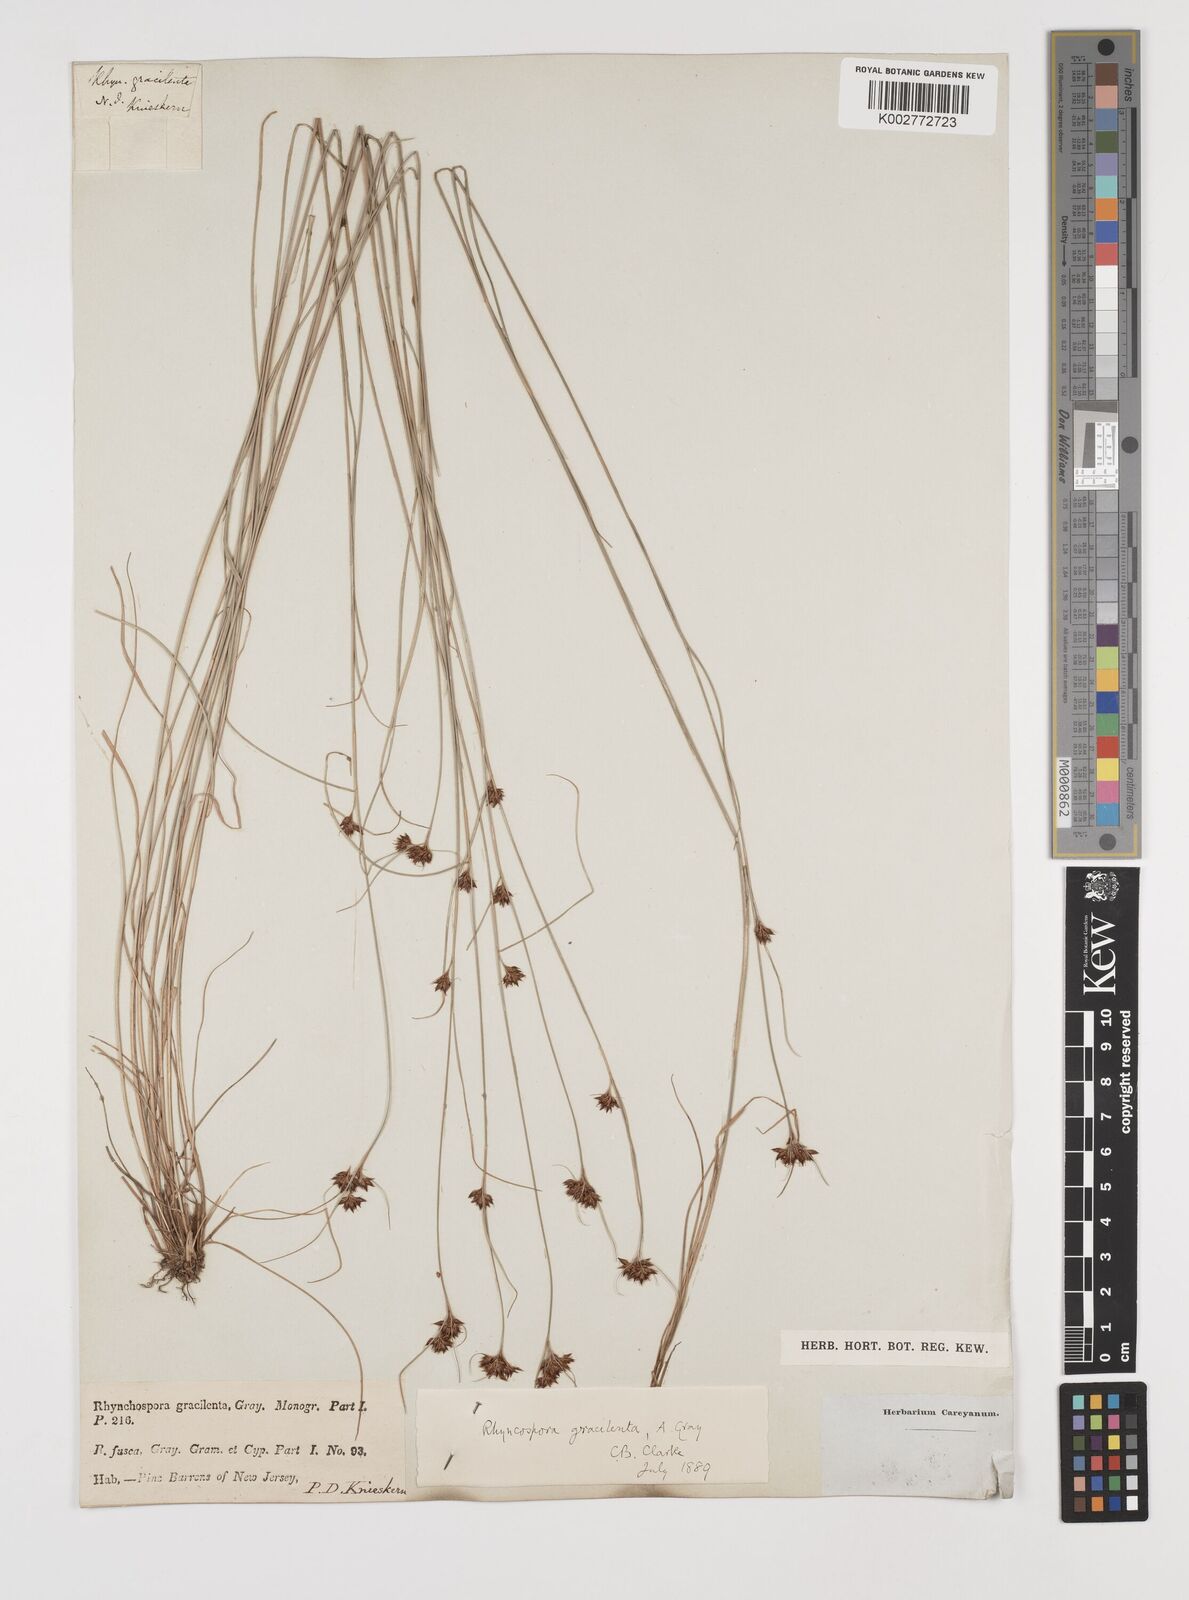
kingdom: Plantae
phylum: Tracheophyta
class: Liliopsida
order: Poales
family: Cyperaceae
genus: Rhynchospora
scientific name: Rhynchospora gracilenta
